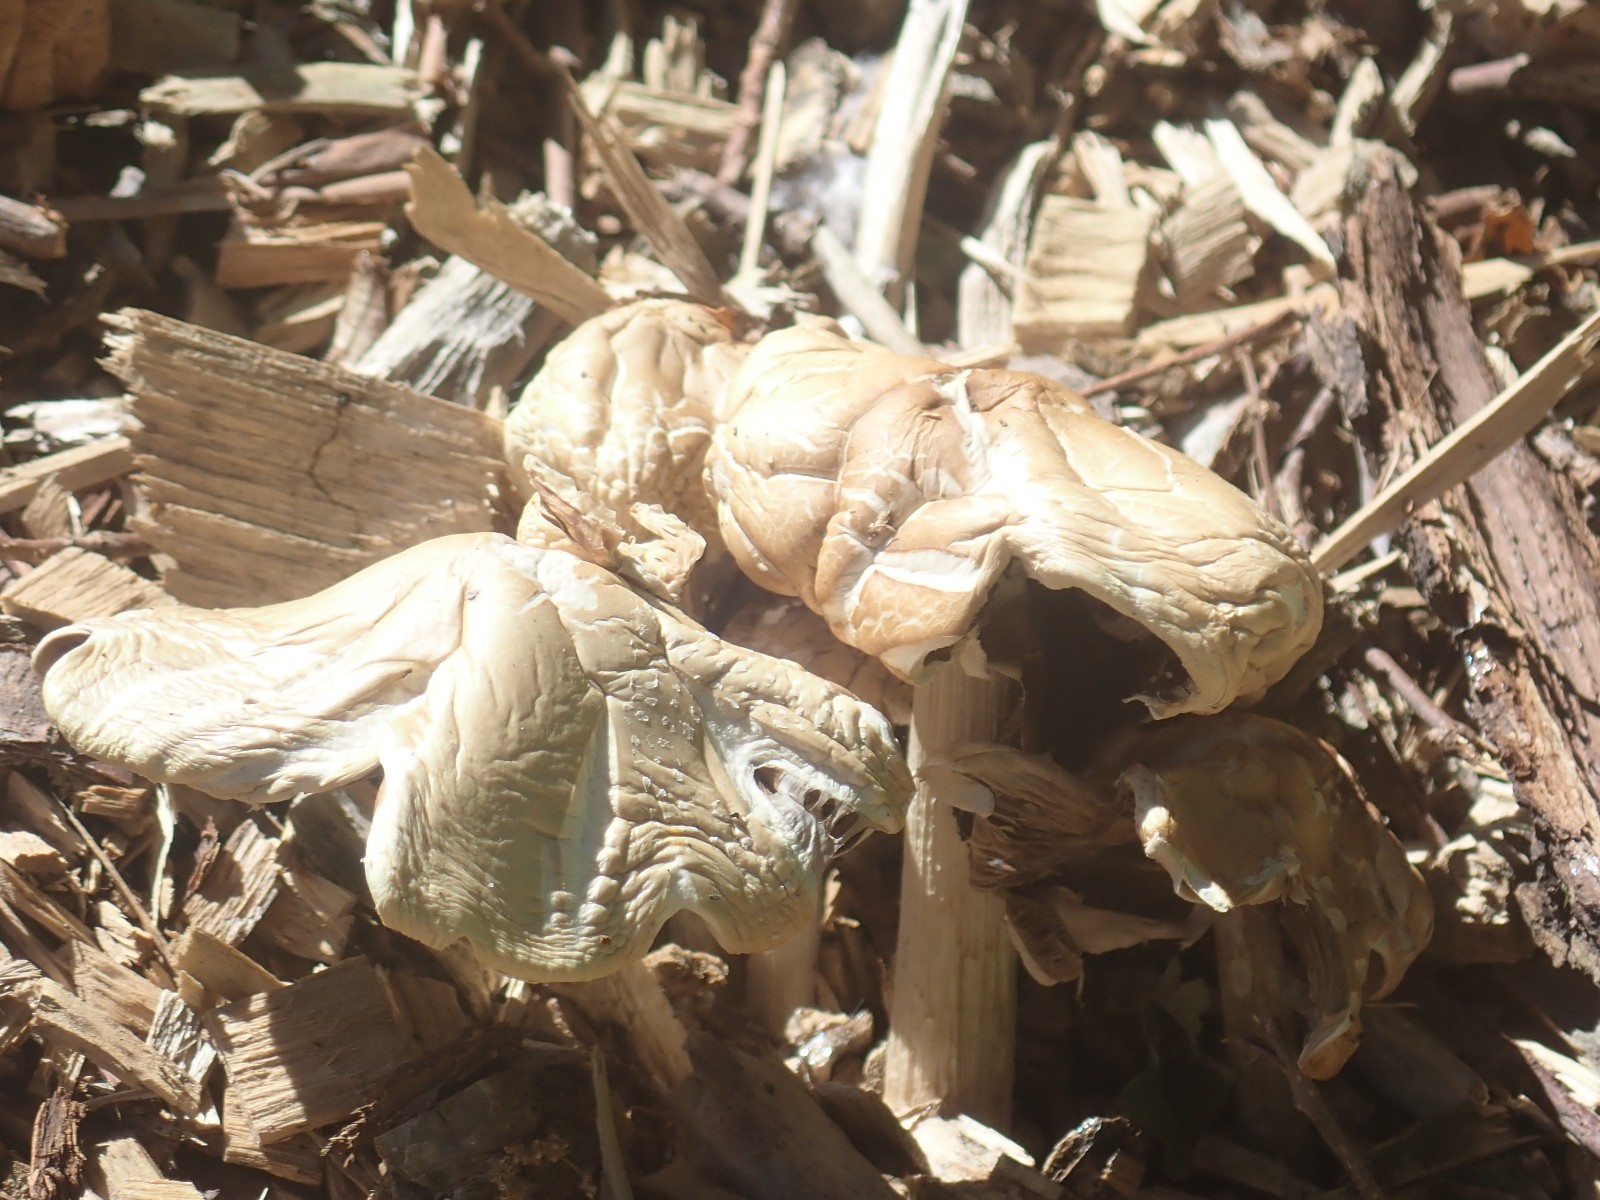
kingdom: Fungi
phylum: Basidiomycota
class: Agaricomycetes
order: Agaricales
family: Strophariaceae
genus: Agrocybe
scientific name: Agrocybe
